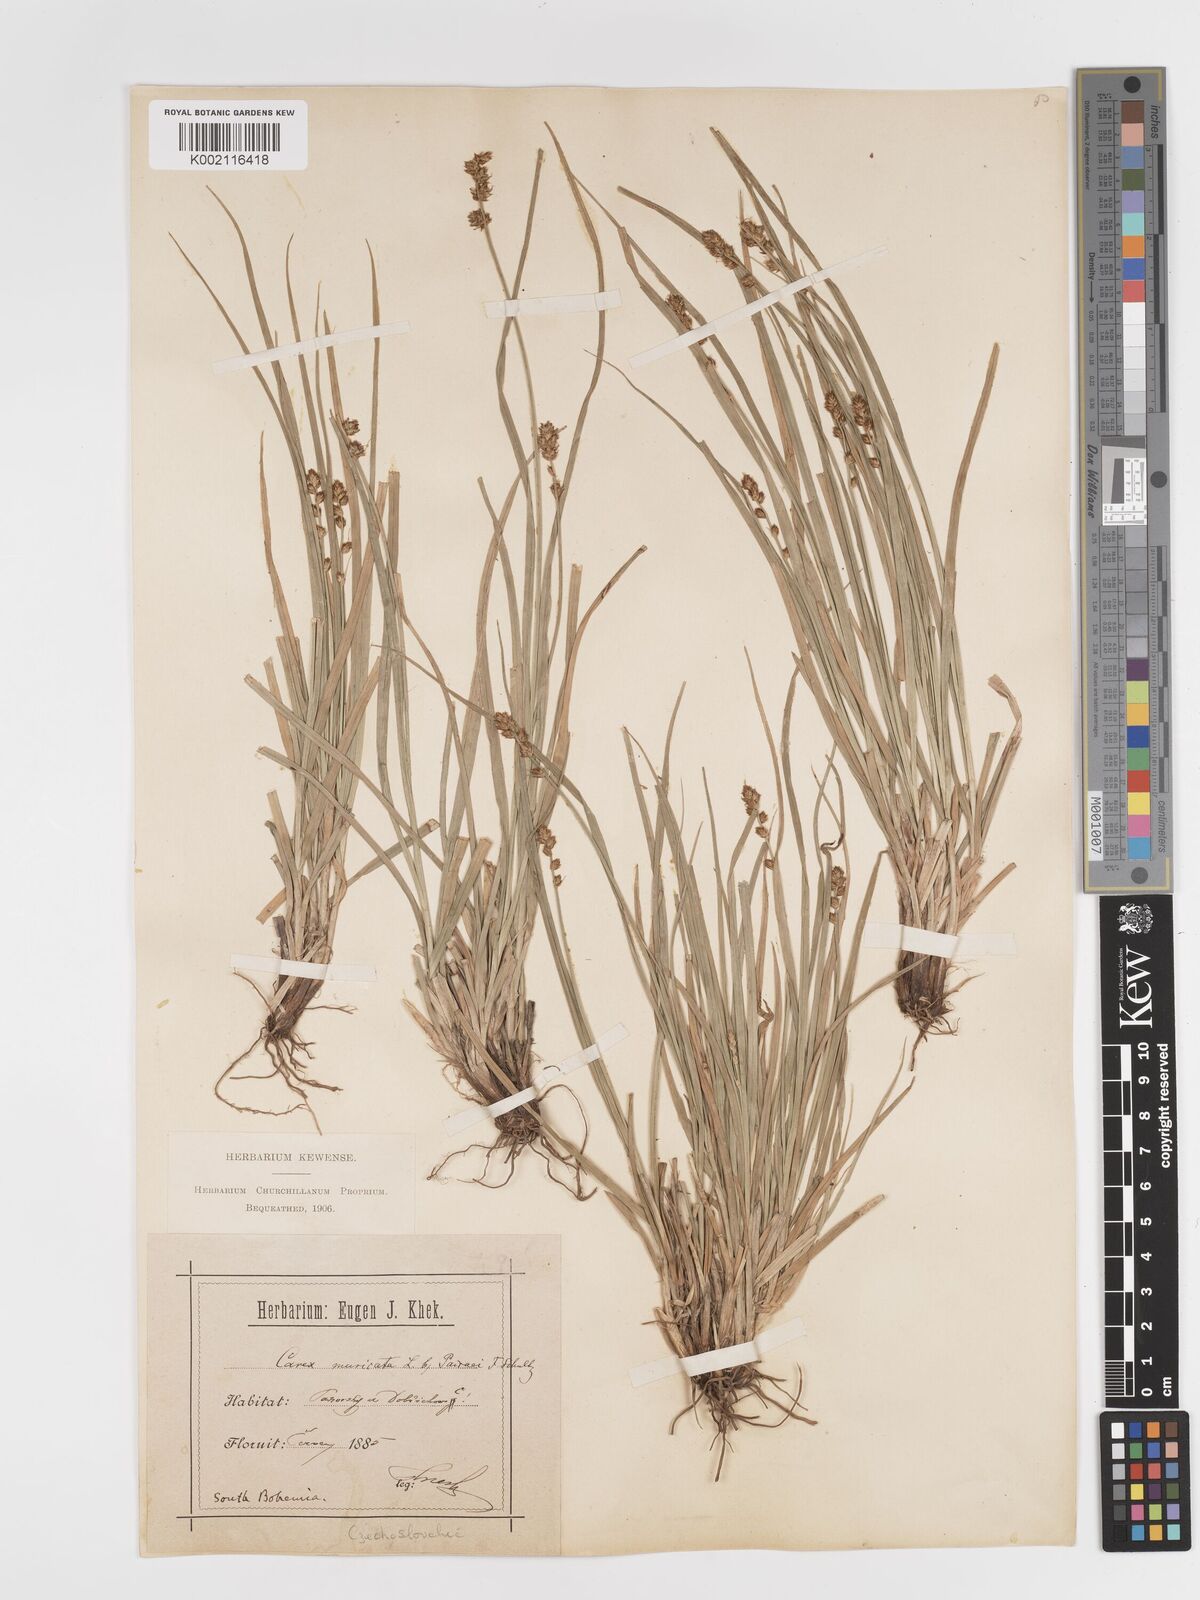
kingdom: Plantae
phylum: Tracheophyta
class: Liliopsida
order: Poales
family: Cyperaceae
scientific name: Cyperaceae
